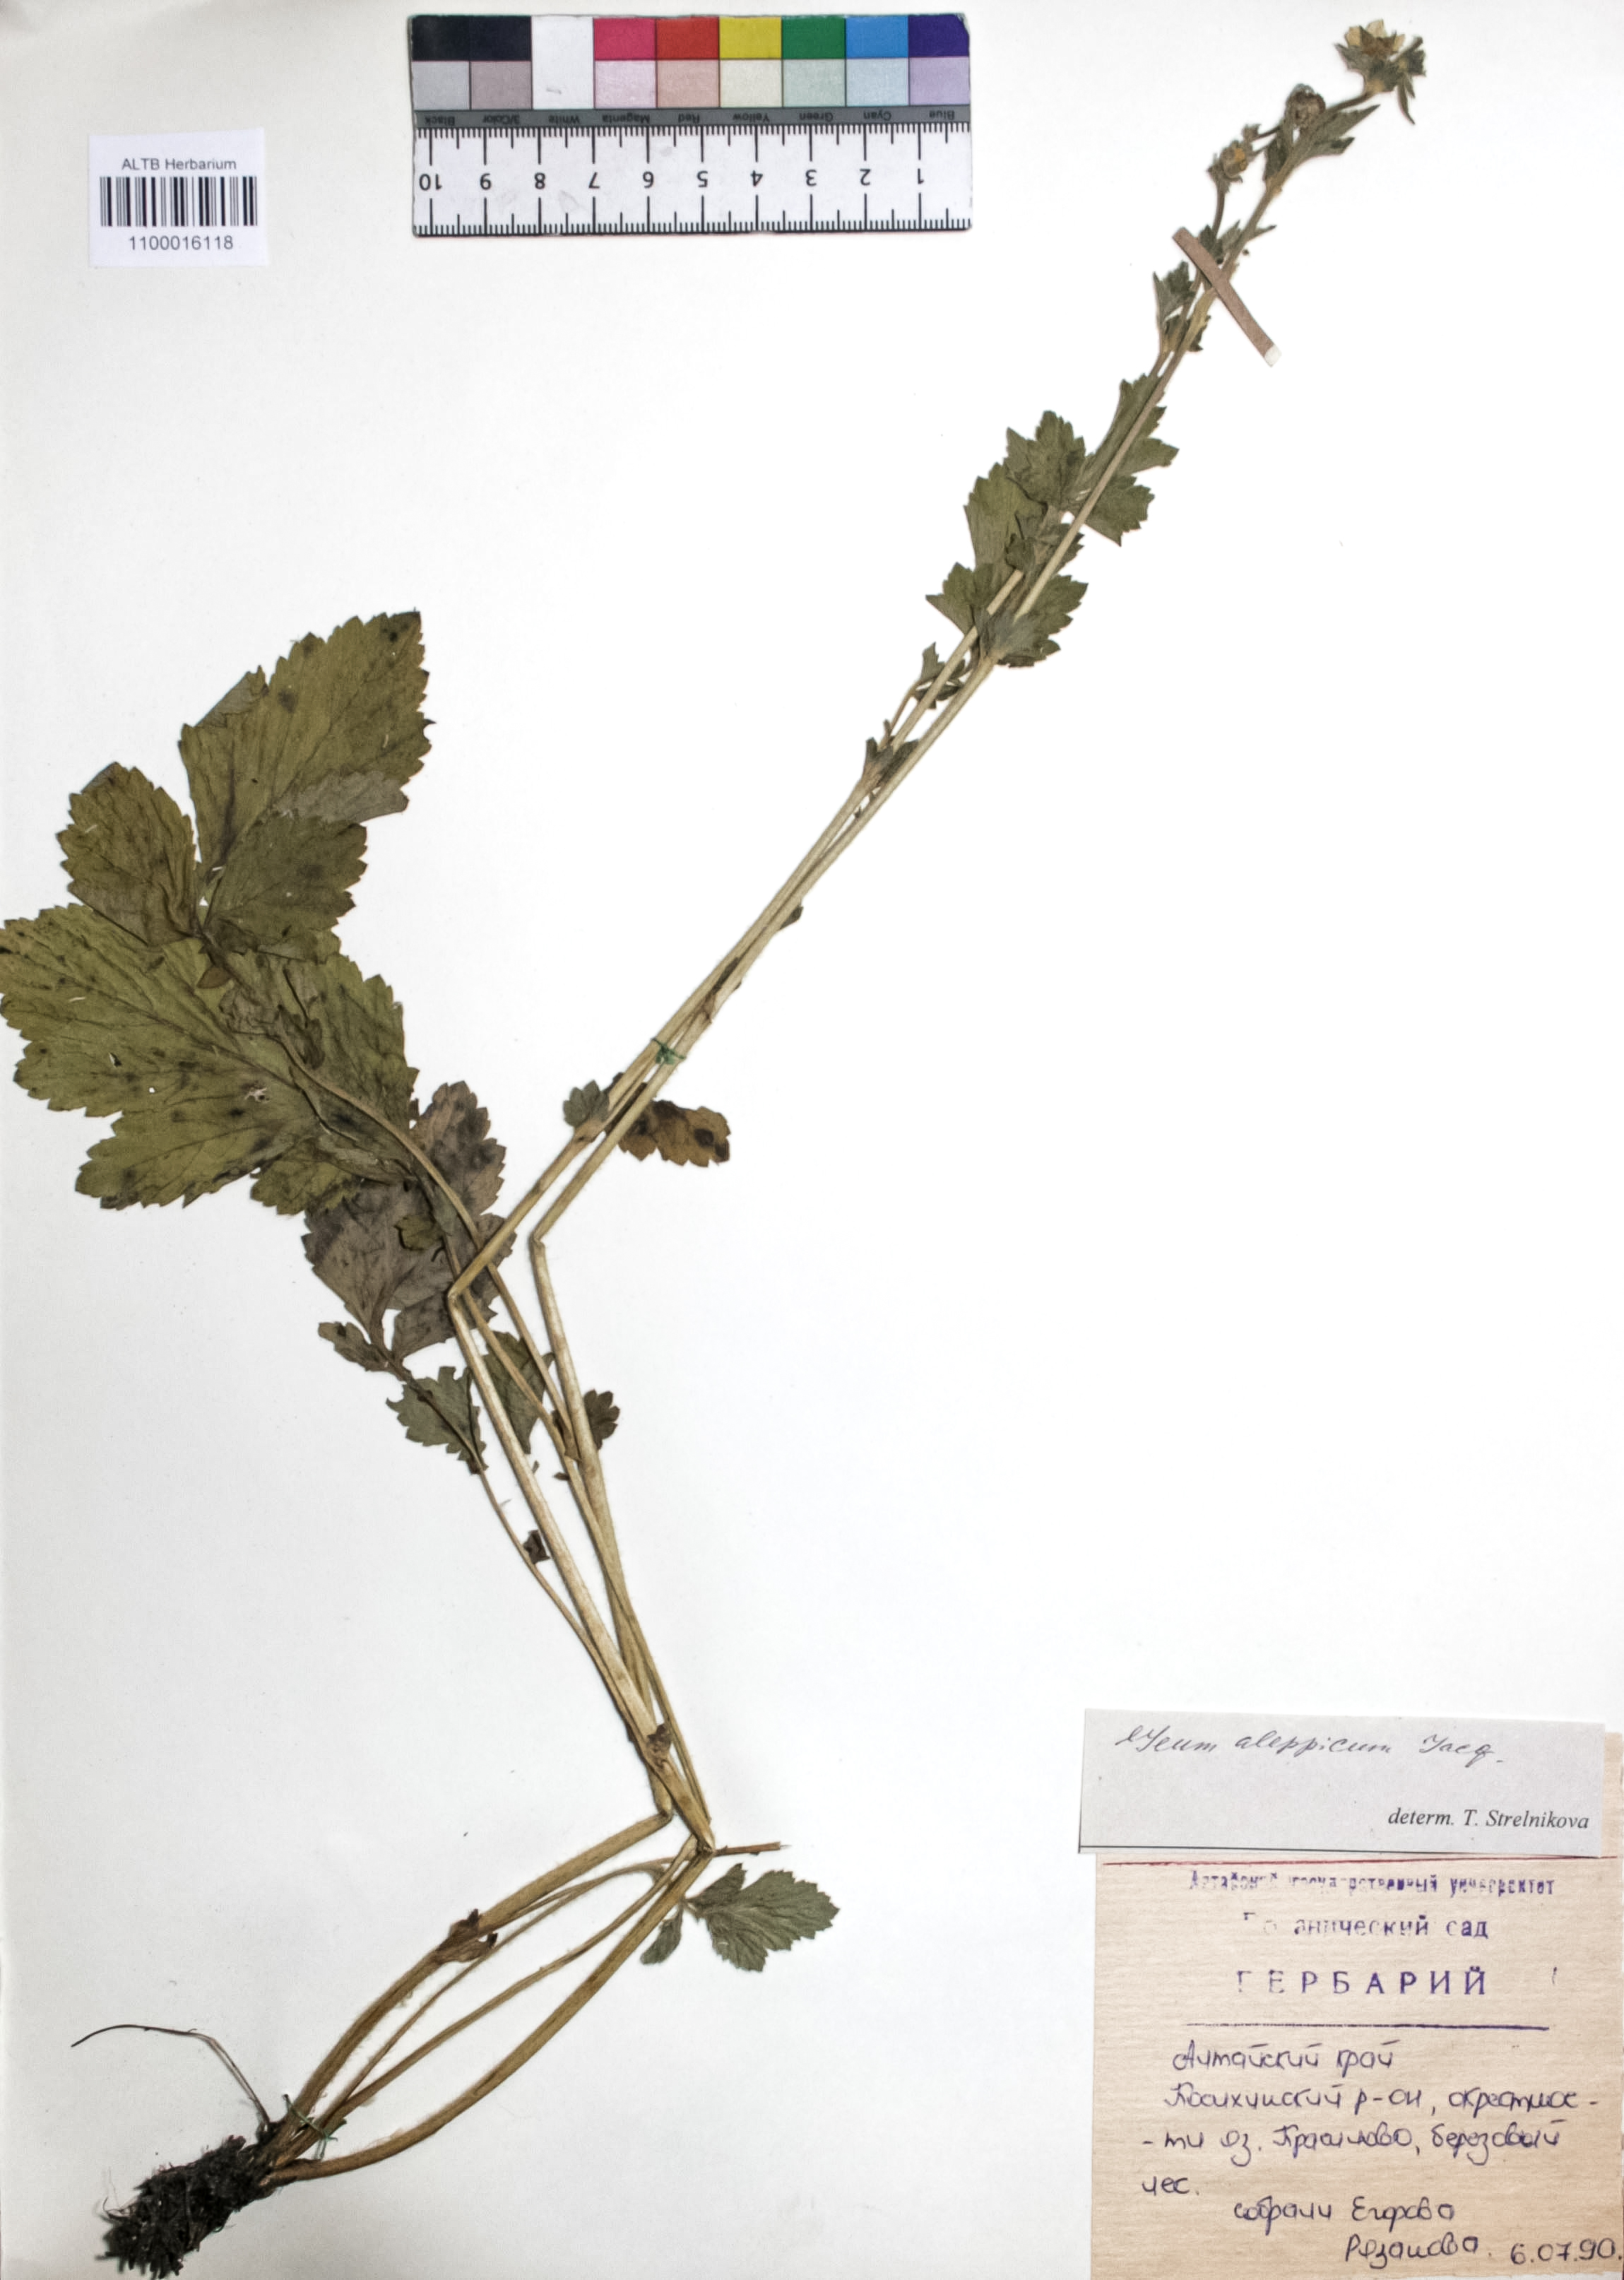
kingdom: Plantae
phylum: Tracheophyta
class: Magnoliopsida
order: Rosales
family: Rosaceae
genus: Geum
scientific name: Geum aleppicum
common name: Yellow avens
